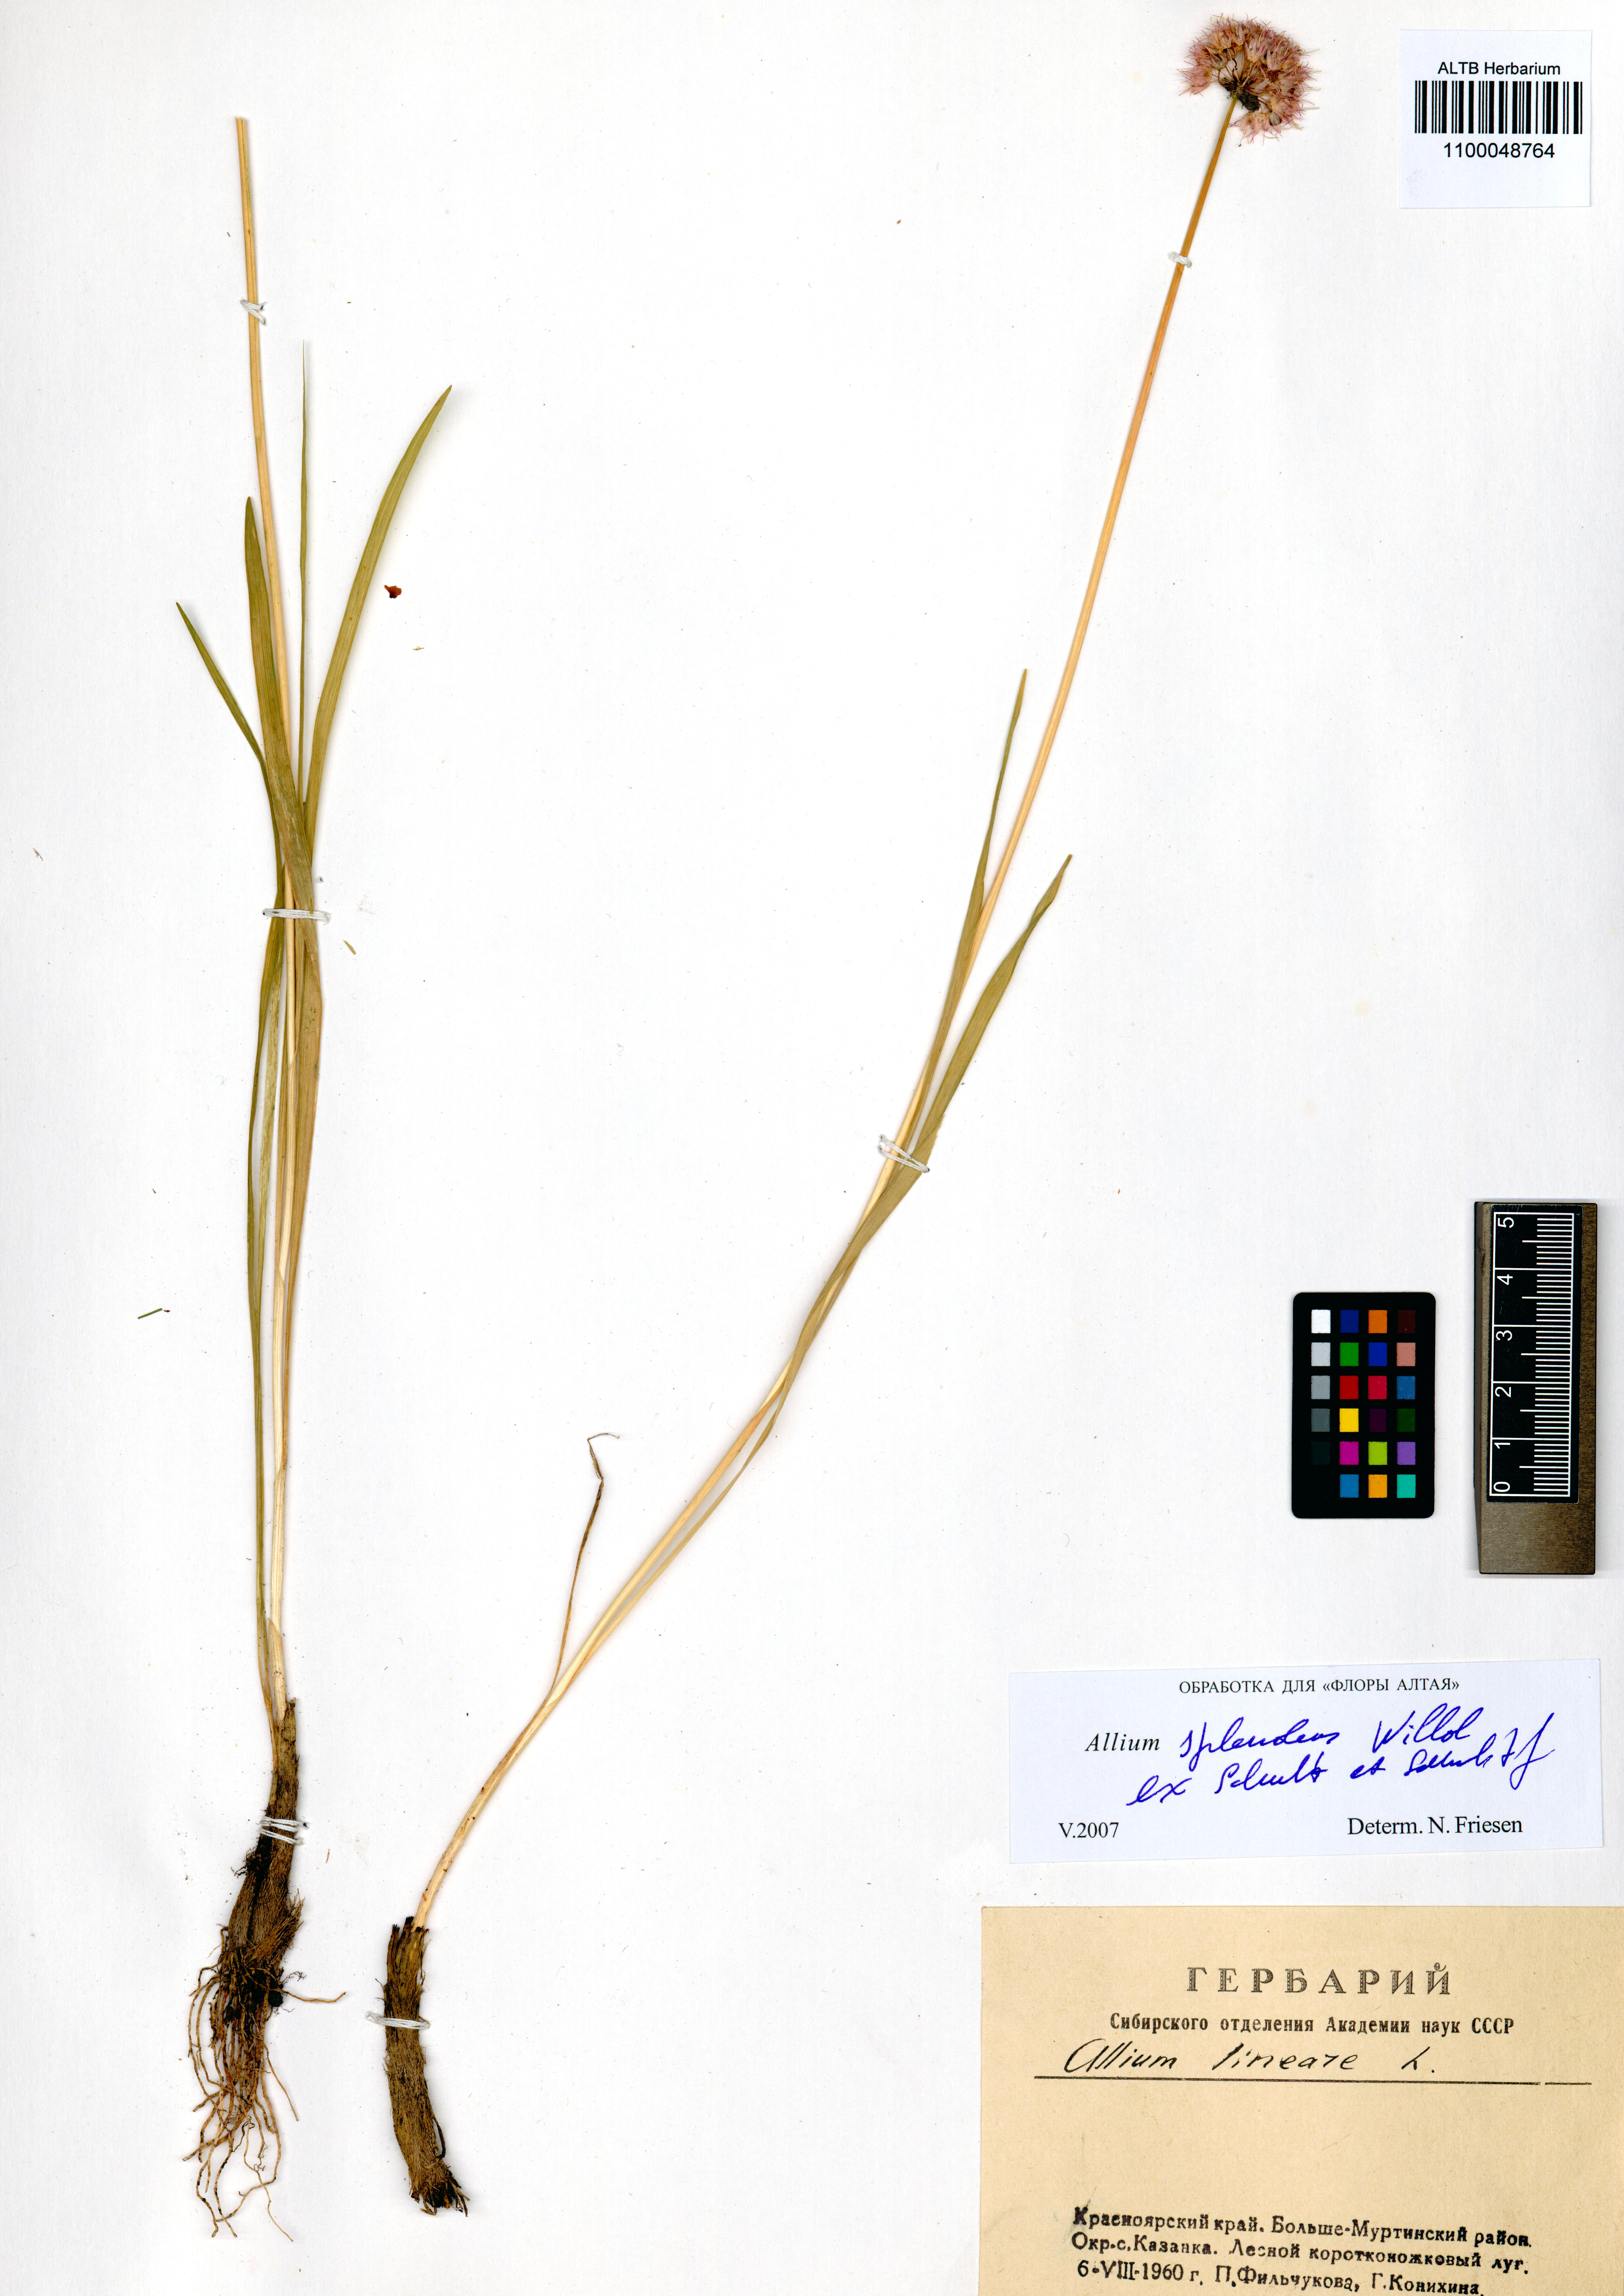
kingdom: Plantae
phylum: Tracheophyta
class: Liliopsida
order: Asparagales
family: Amaryllidaceae
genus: Allium
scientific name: Allium splendens
